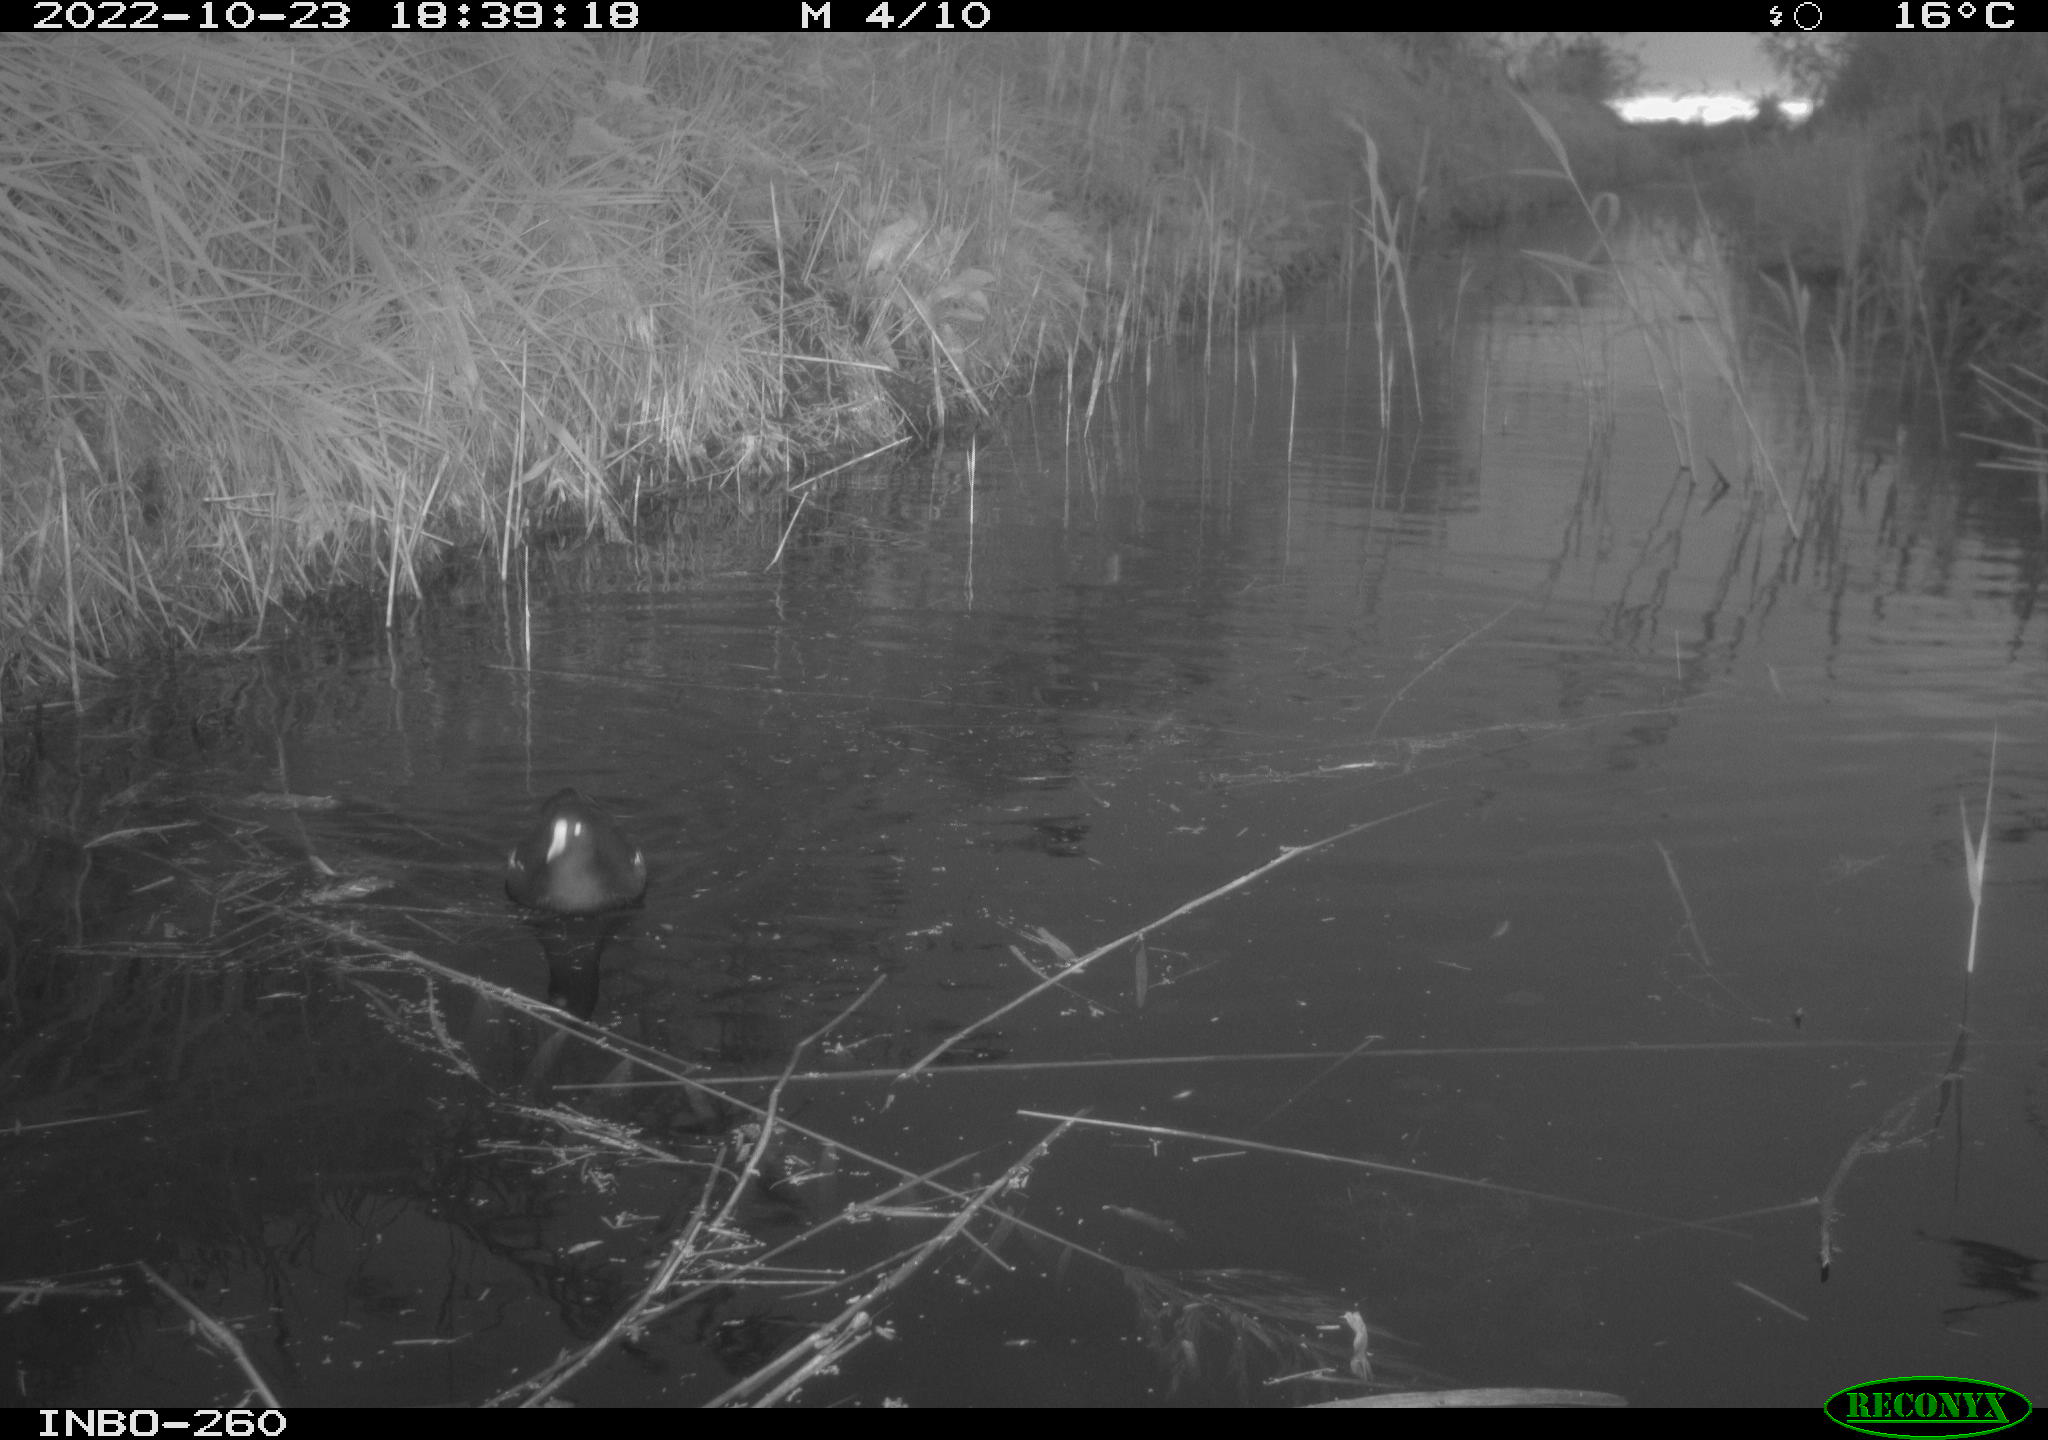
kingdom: Animalia
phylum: Chordata
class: Aves
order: Gruiformes
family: Rallidae
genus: Gallinula
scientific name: Gallinula chloropus
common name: Common moorhen
